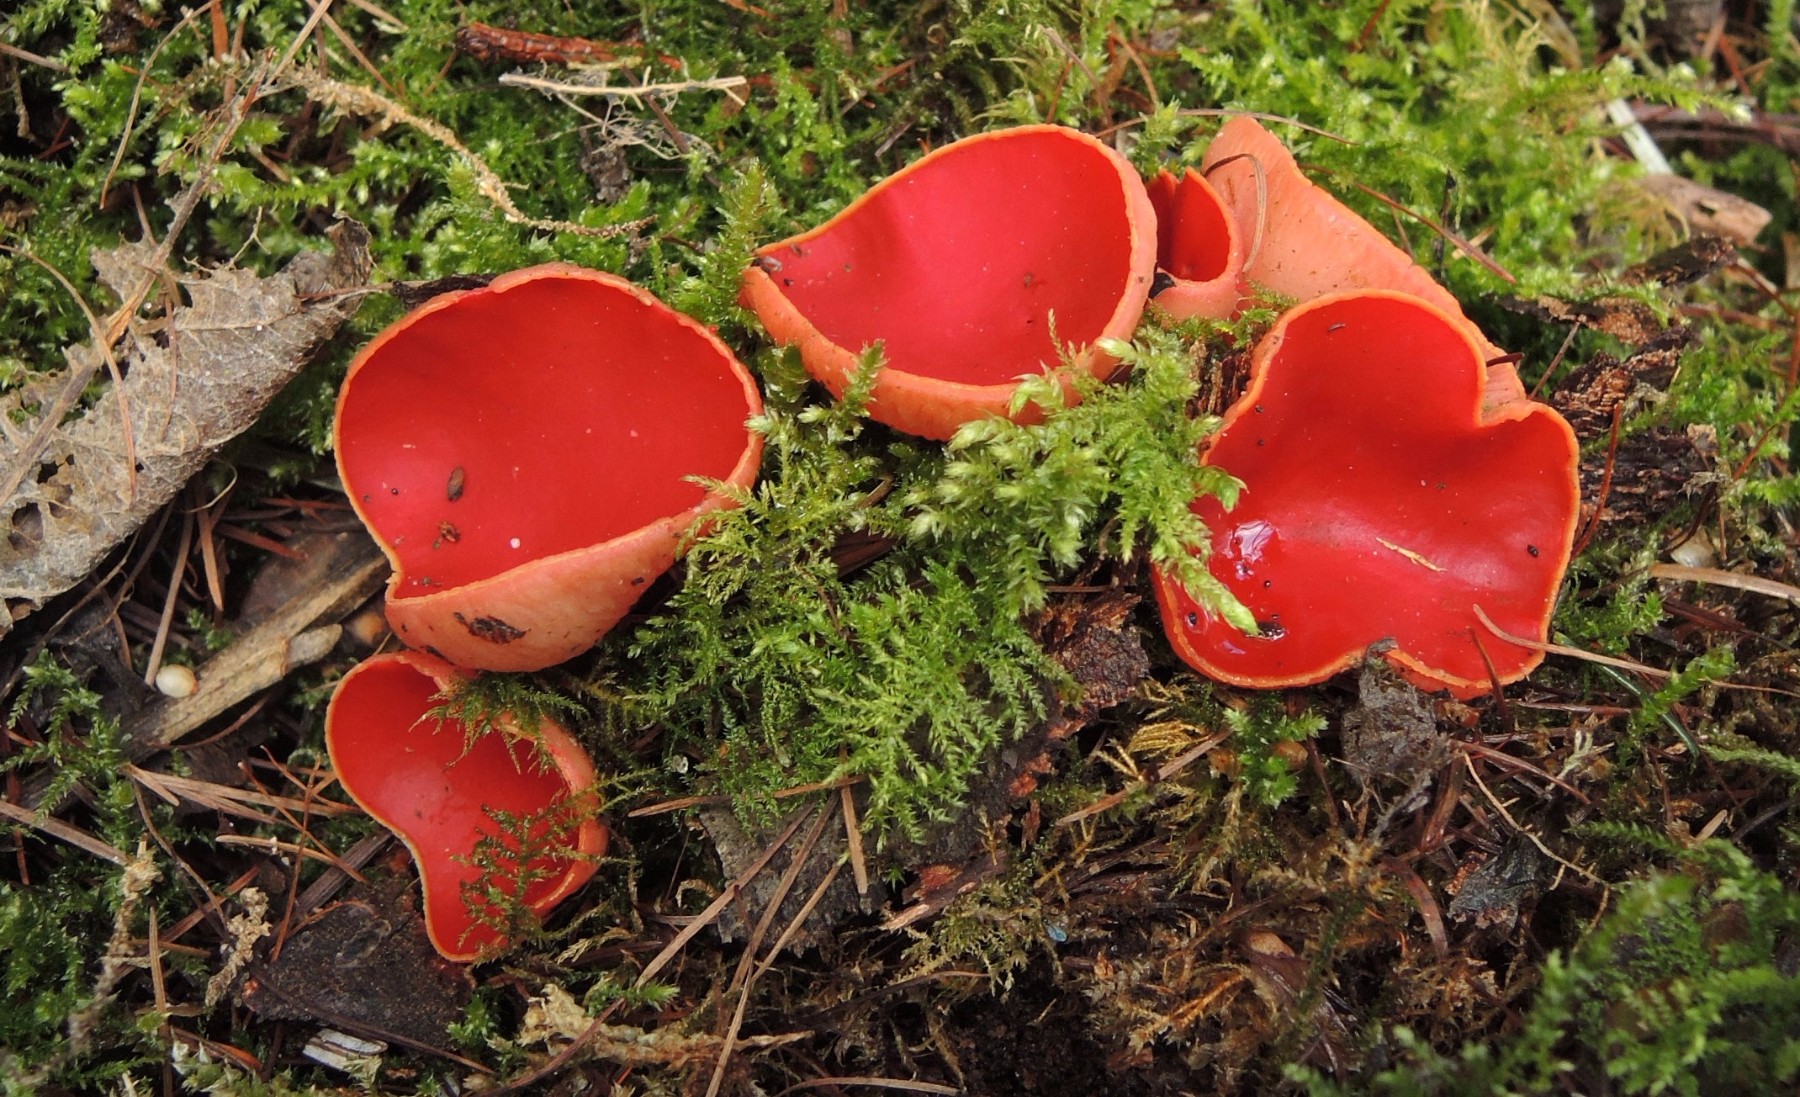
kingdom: Fungi
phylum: Ascomycota
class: Pezizomycetes
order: Pezizales
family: Sarcoscyphaceae
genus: Sarcoscypha
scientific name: Sarcoscypha austriaca
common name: krølhåret pragtbæger
